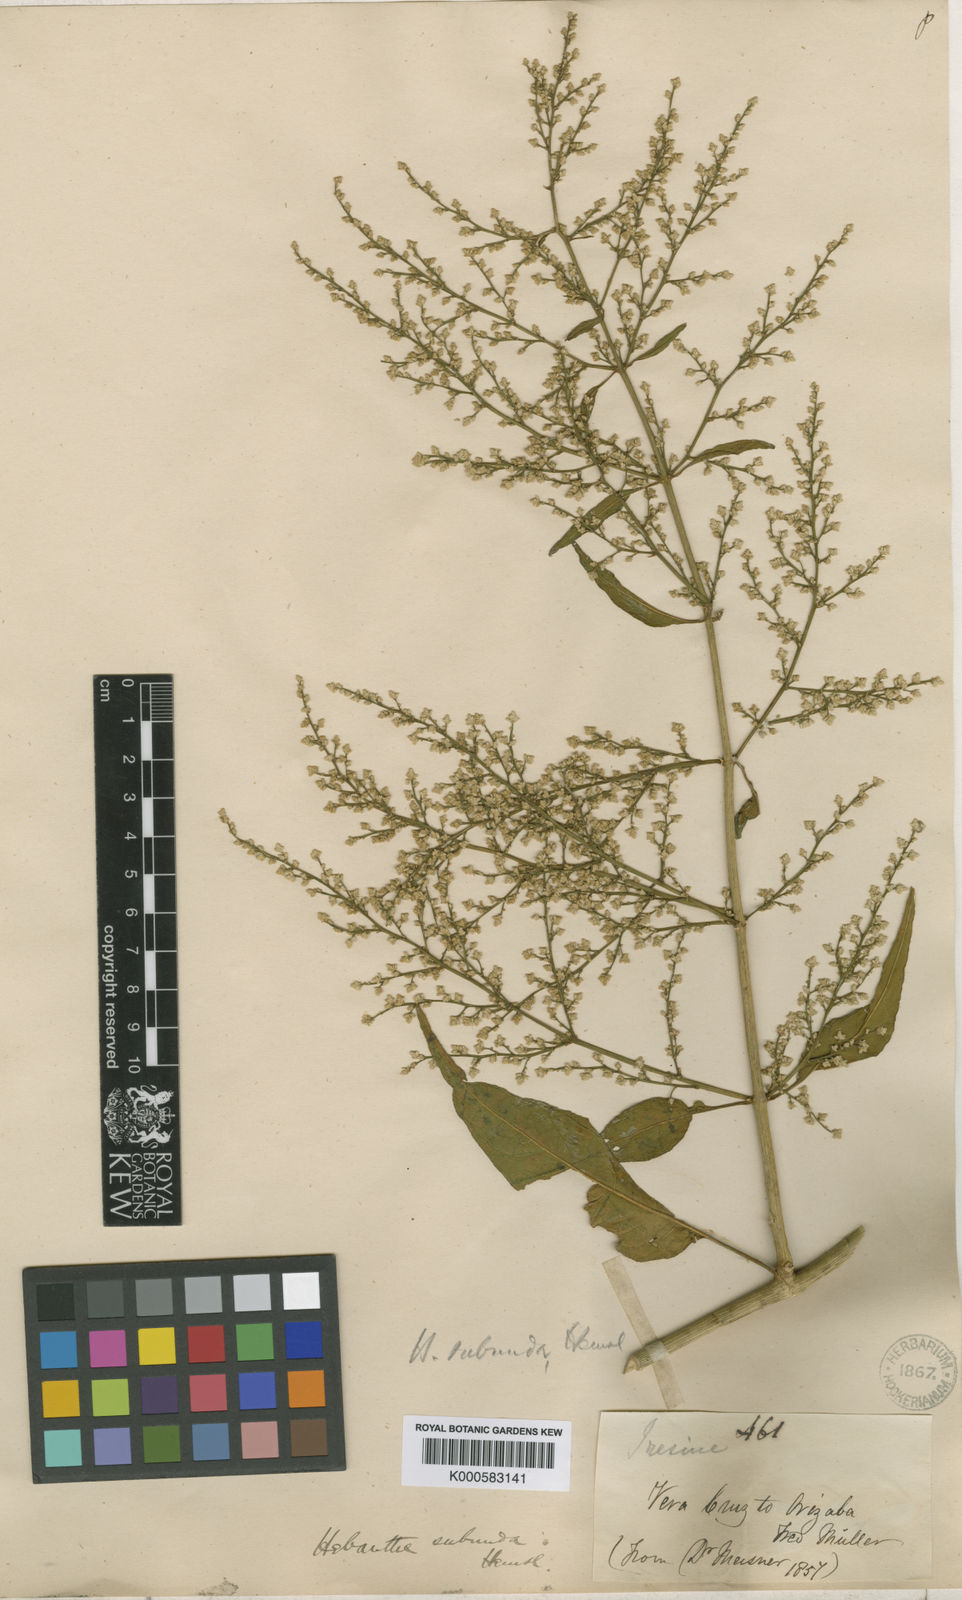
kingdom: Plantae
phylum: Tracheophyta
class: Magnoliopsida
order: Caryophyllales
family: Amaranthaceae
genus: Iresine
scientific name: Iresine interrupta
